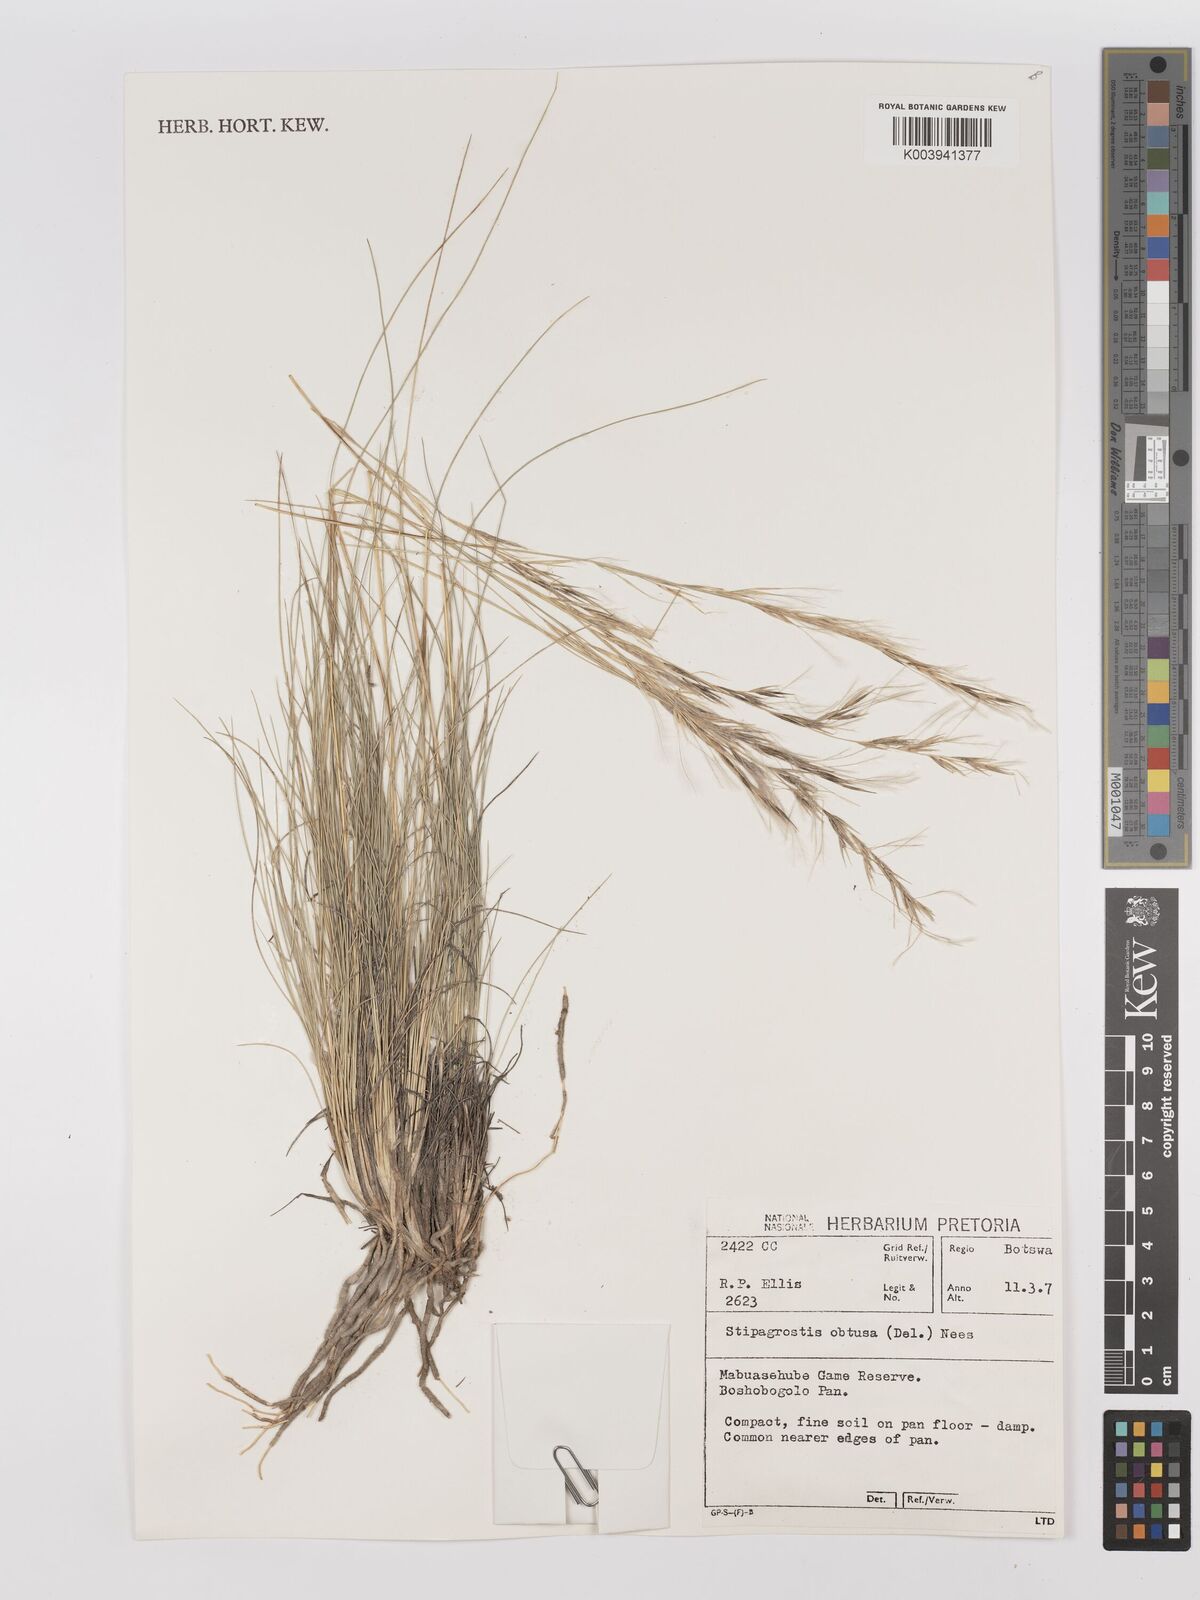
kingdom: Plantae
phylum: Tracheophyta
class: Liliopsida
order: Poales
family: Poaceae
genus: Stipagrostis
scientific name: Stipagrostis obtusa
